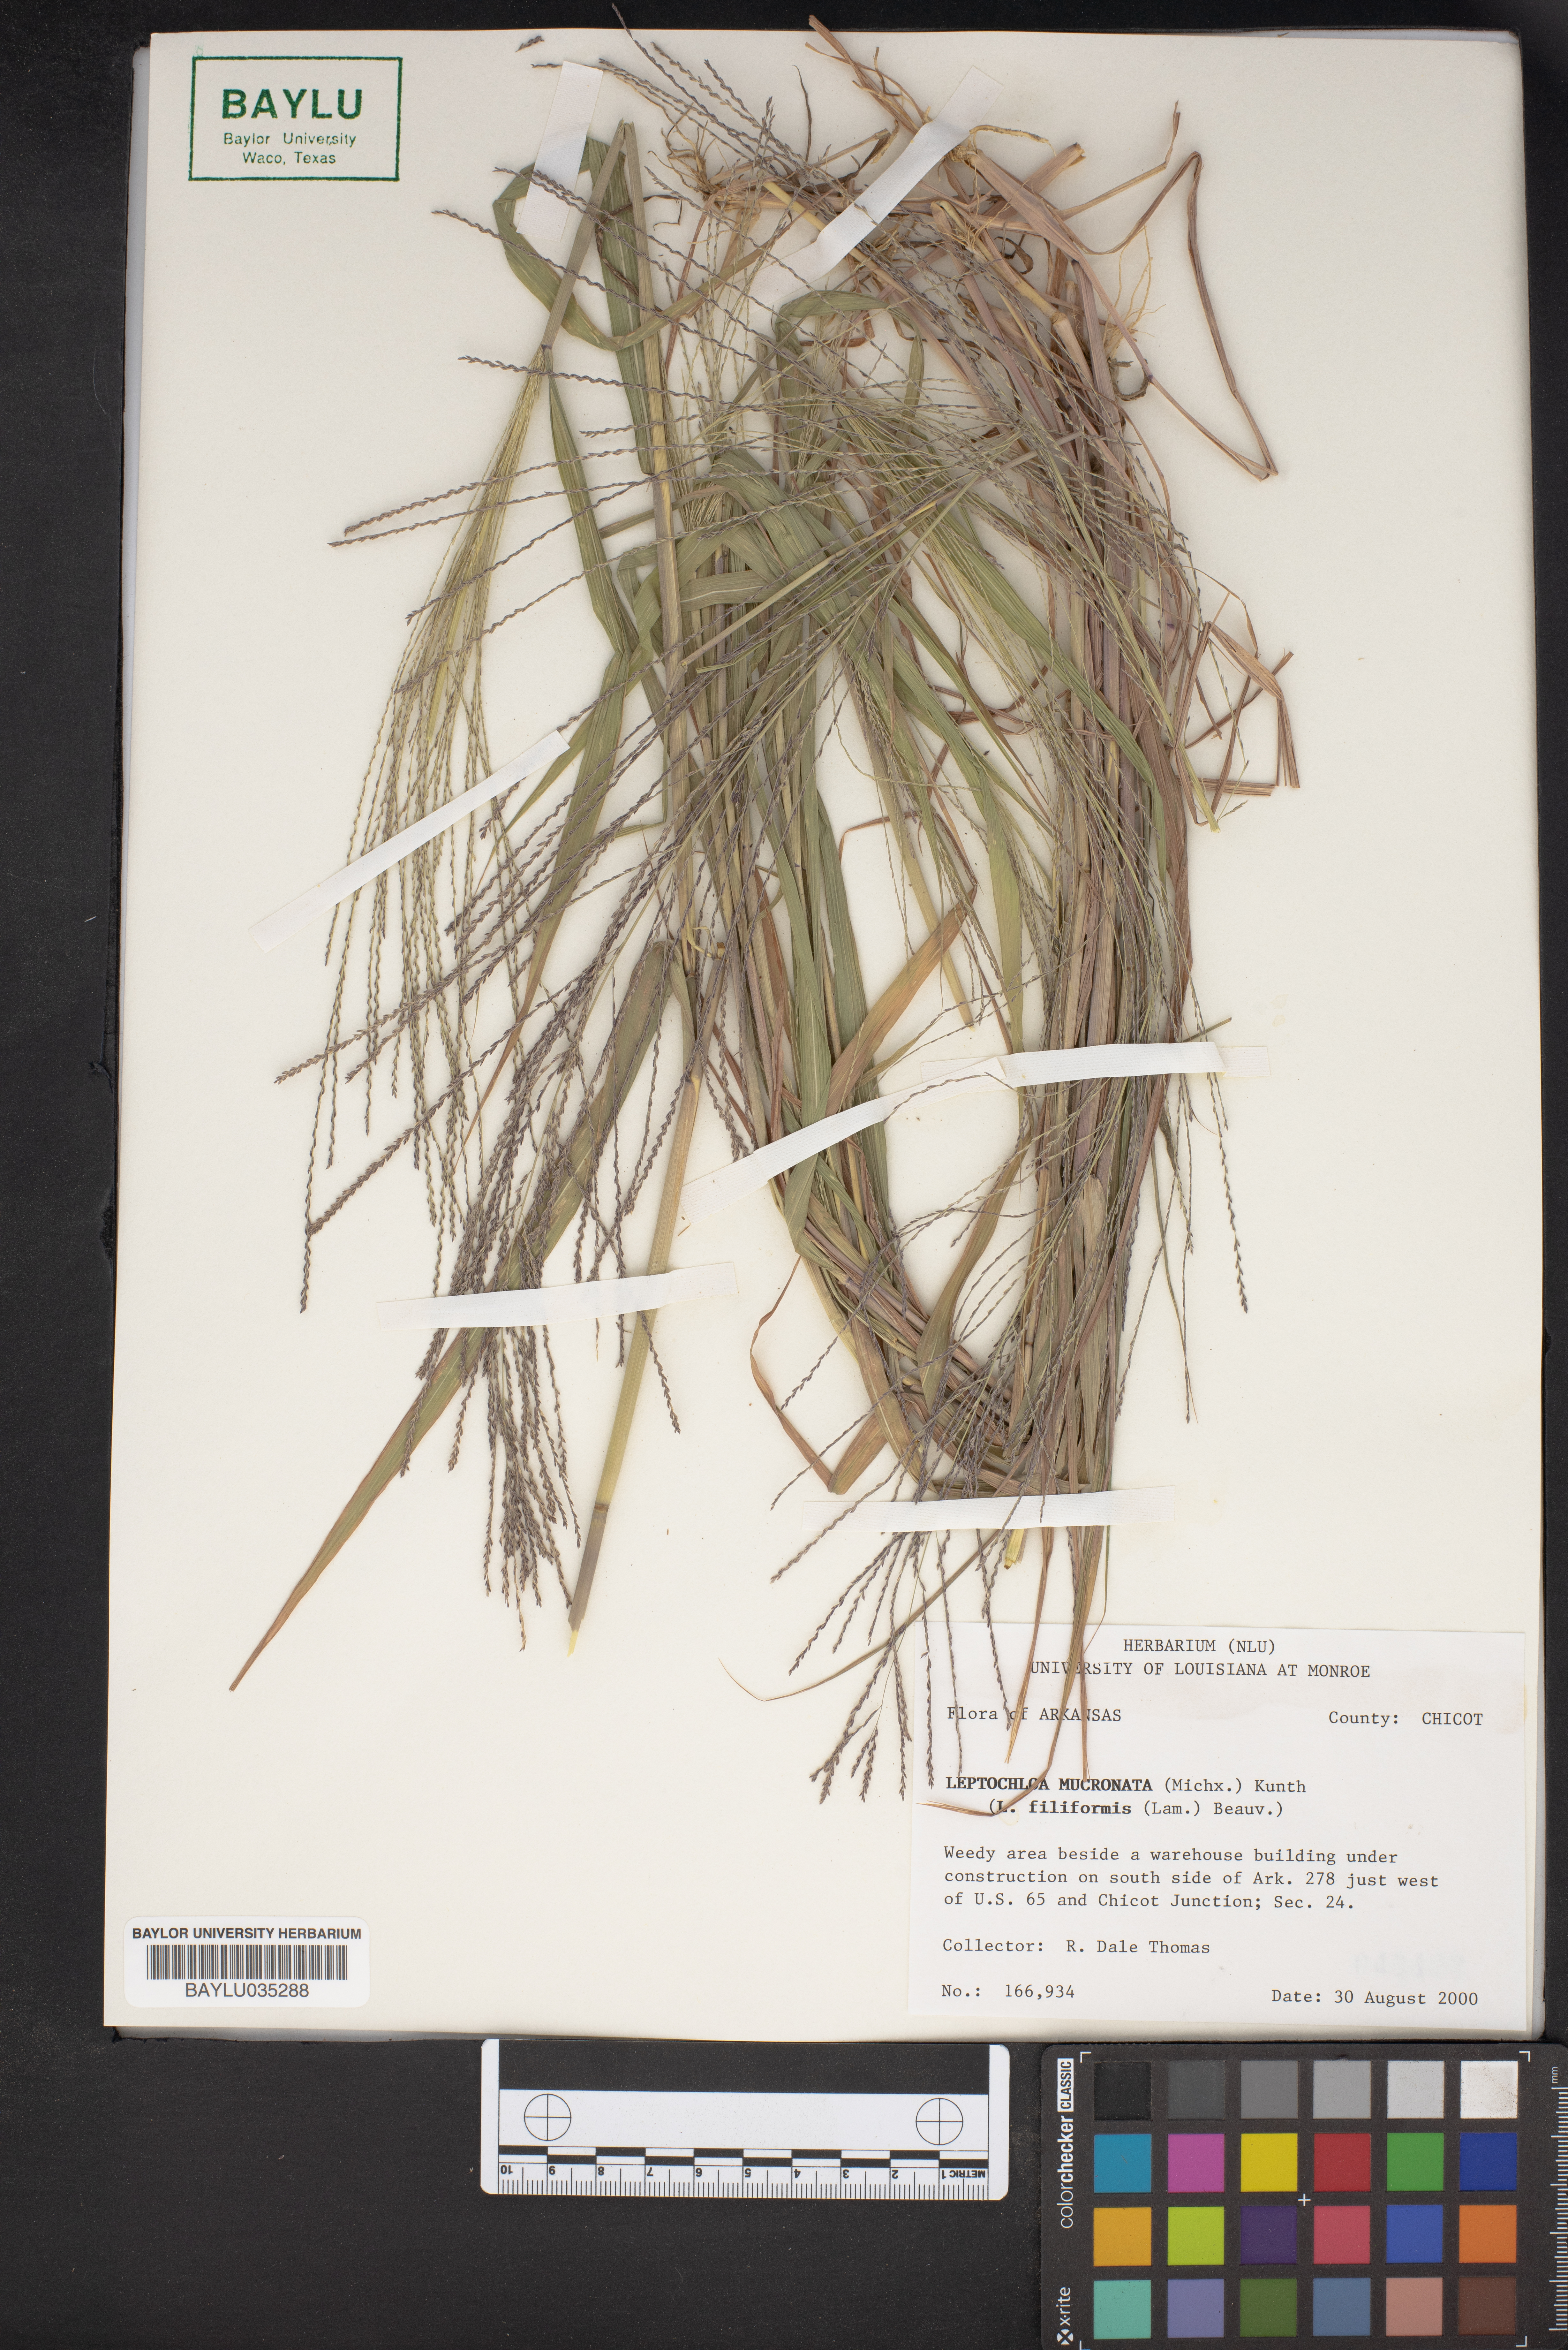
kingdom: Plantae
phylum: Tracheophyta
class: Liliopsida
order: Poales
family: Poaceae
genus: Leptochloa
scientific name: Leptochloa mucronata
